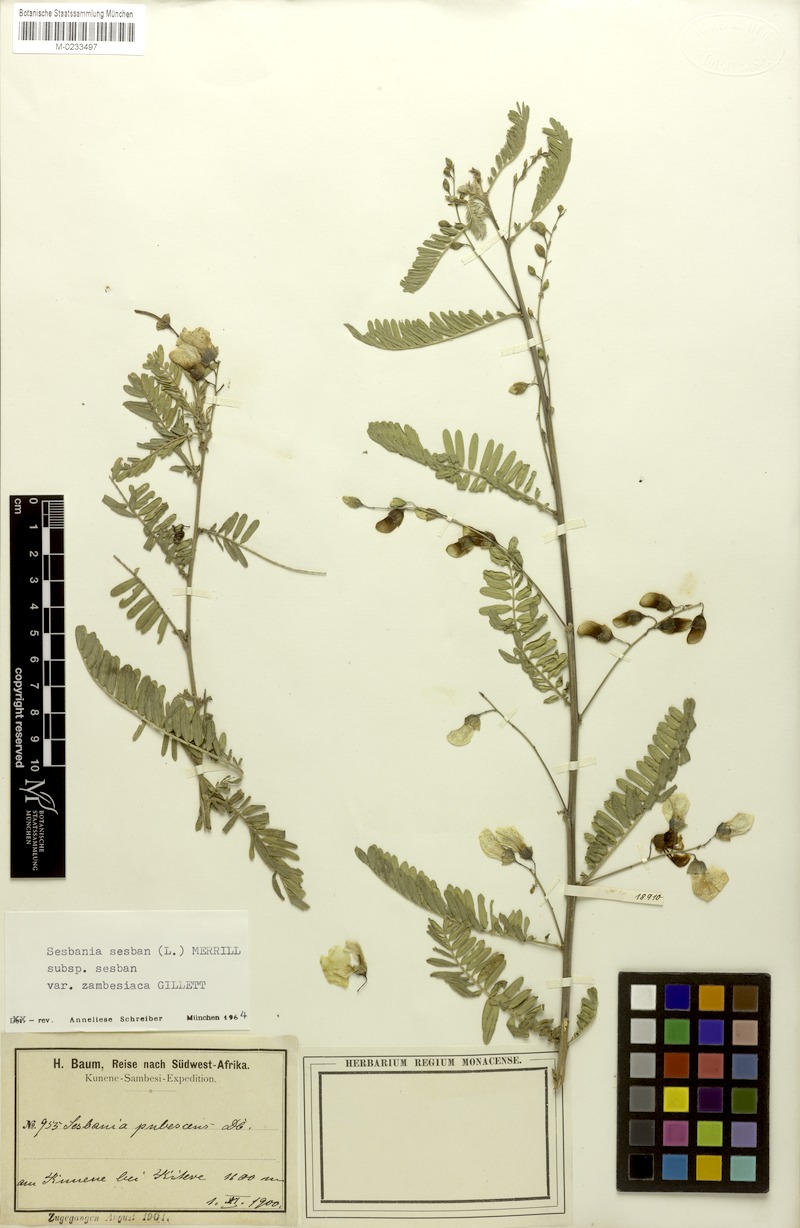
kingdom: Plantae
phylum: Tracheophyta
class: Magnoliopsida
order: Fabales
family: Fabaceae
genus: Sesbania
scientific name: Sesbania sesban
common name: Egyptian sesban
